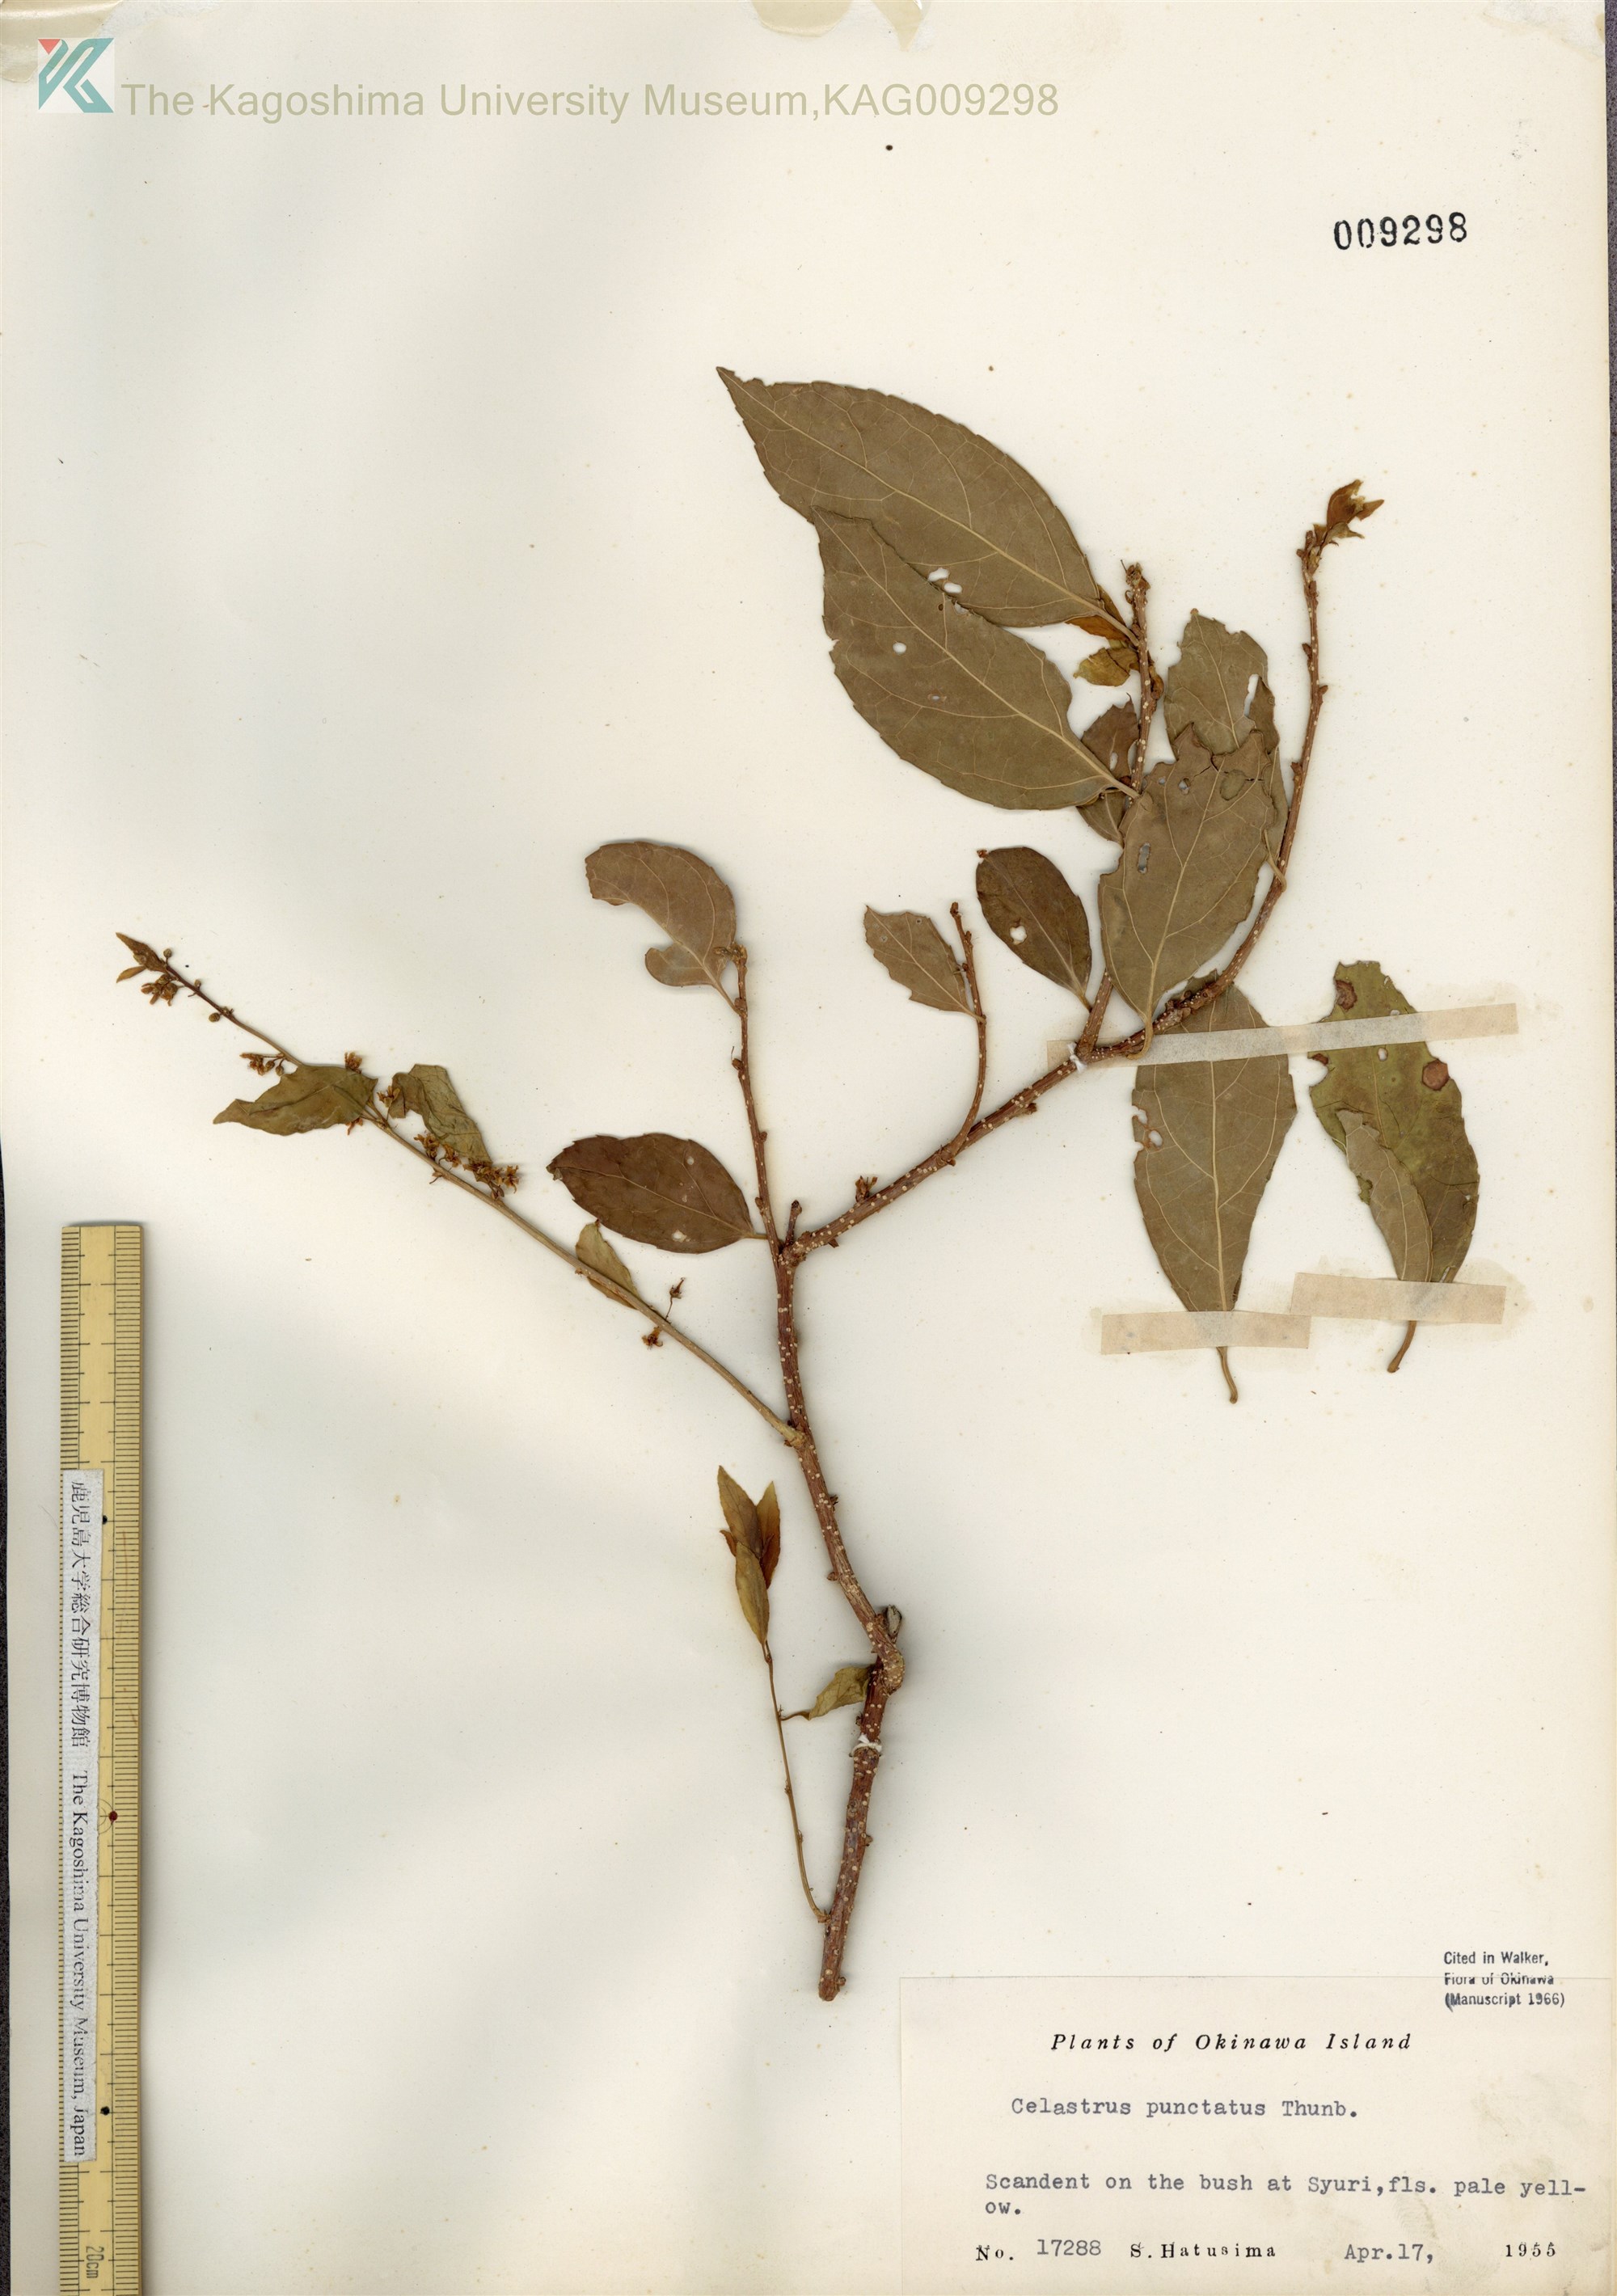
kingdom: Plantae
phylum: Tracheophyta
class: Magnoliopsida
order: Celastrales
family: Celastraceae
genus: Celastrus
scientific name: Celastrus punctatus
